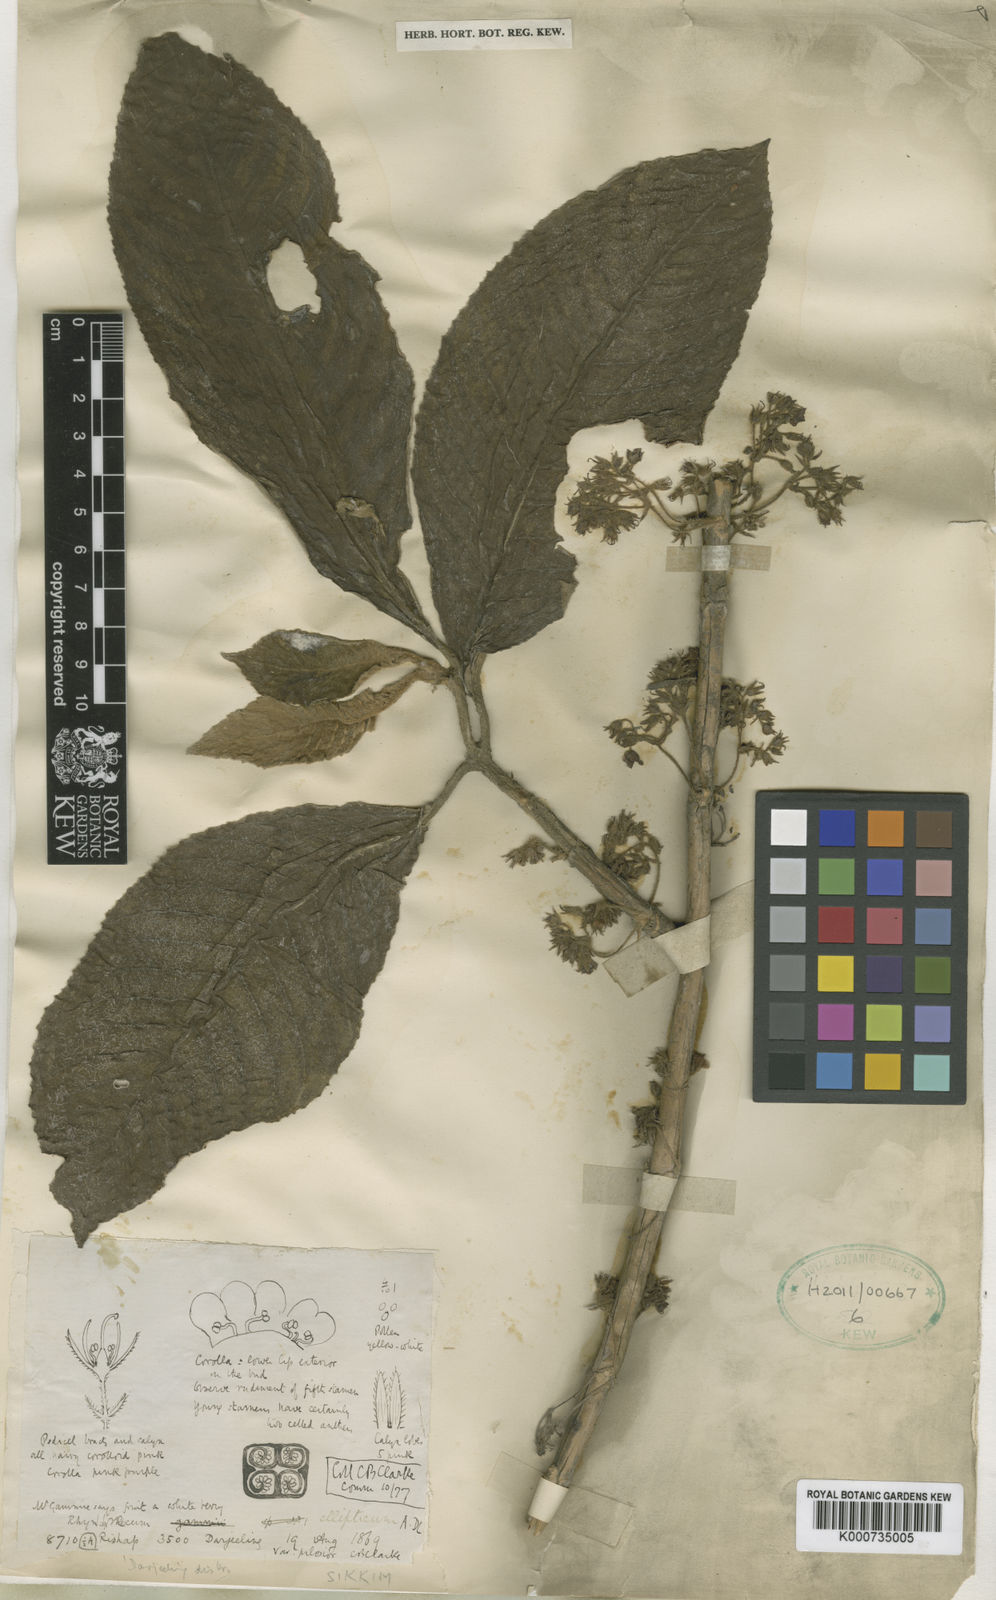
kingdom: Plantae
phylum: Tracheophyta
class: Magnoliopsida
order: Lamiales
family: Gesneriaceae
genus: Rhynchotechum
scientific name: Rhynchotechum ellipticum
